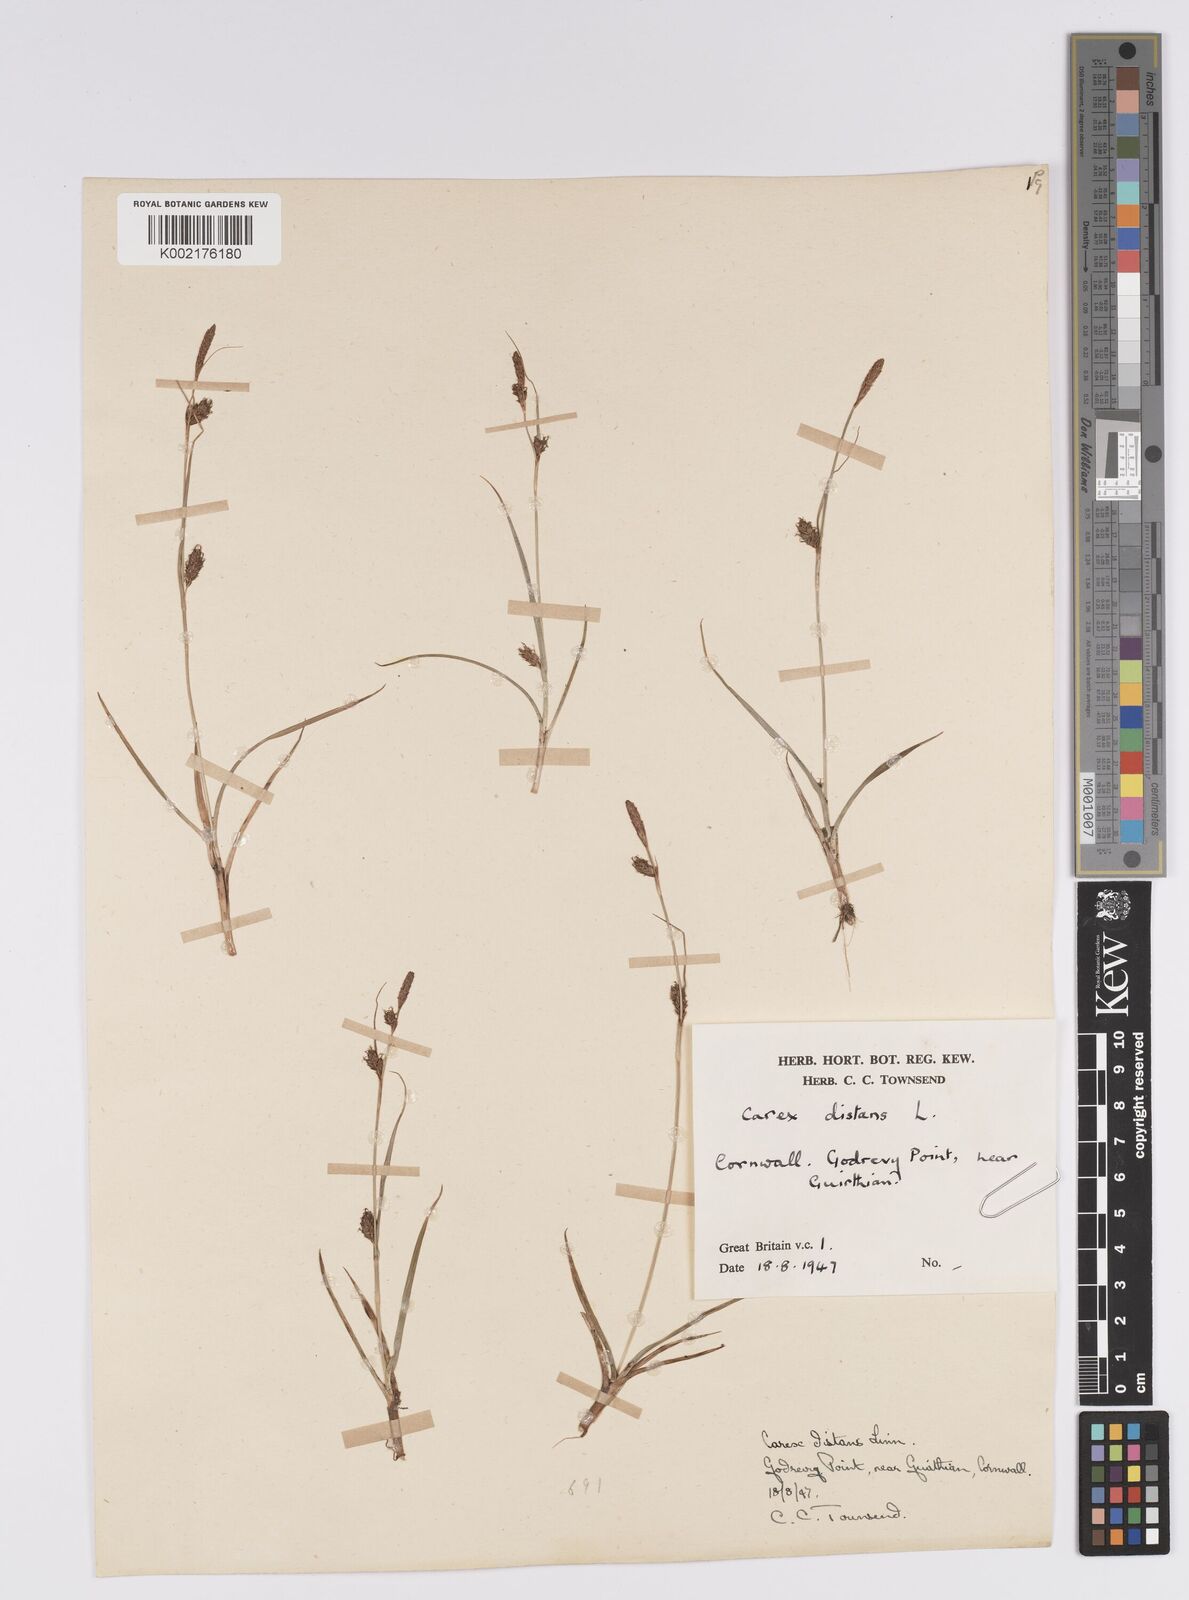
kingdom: Plantae
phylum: Tracheophyta
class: Liliopsida
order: Poales
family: Cyperaceae
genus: Carex
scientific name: Carex distans
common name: Distant sedge
